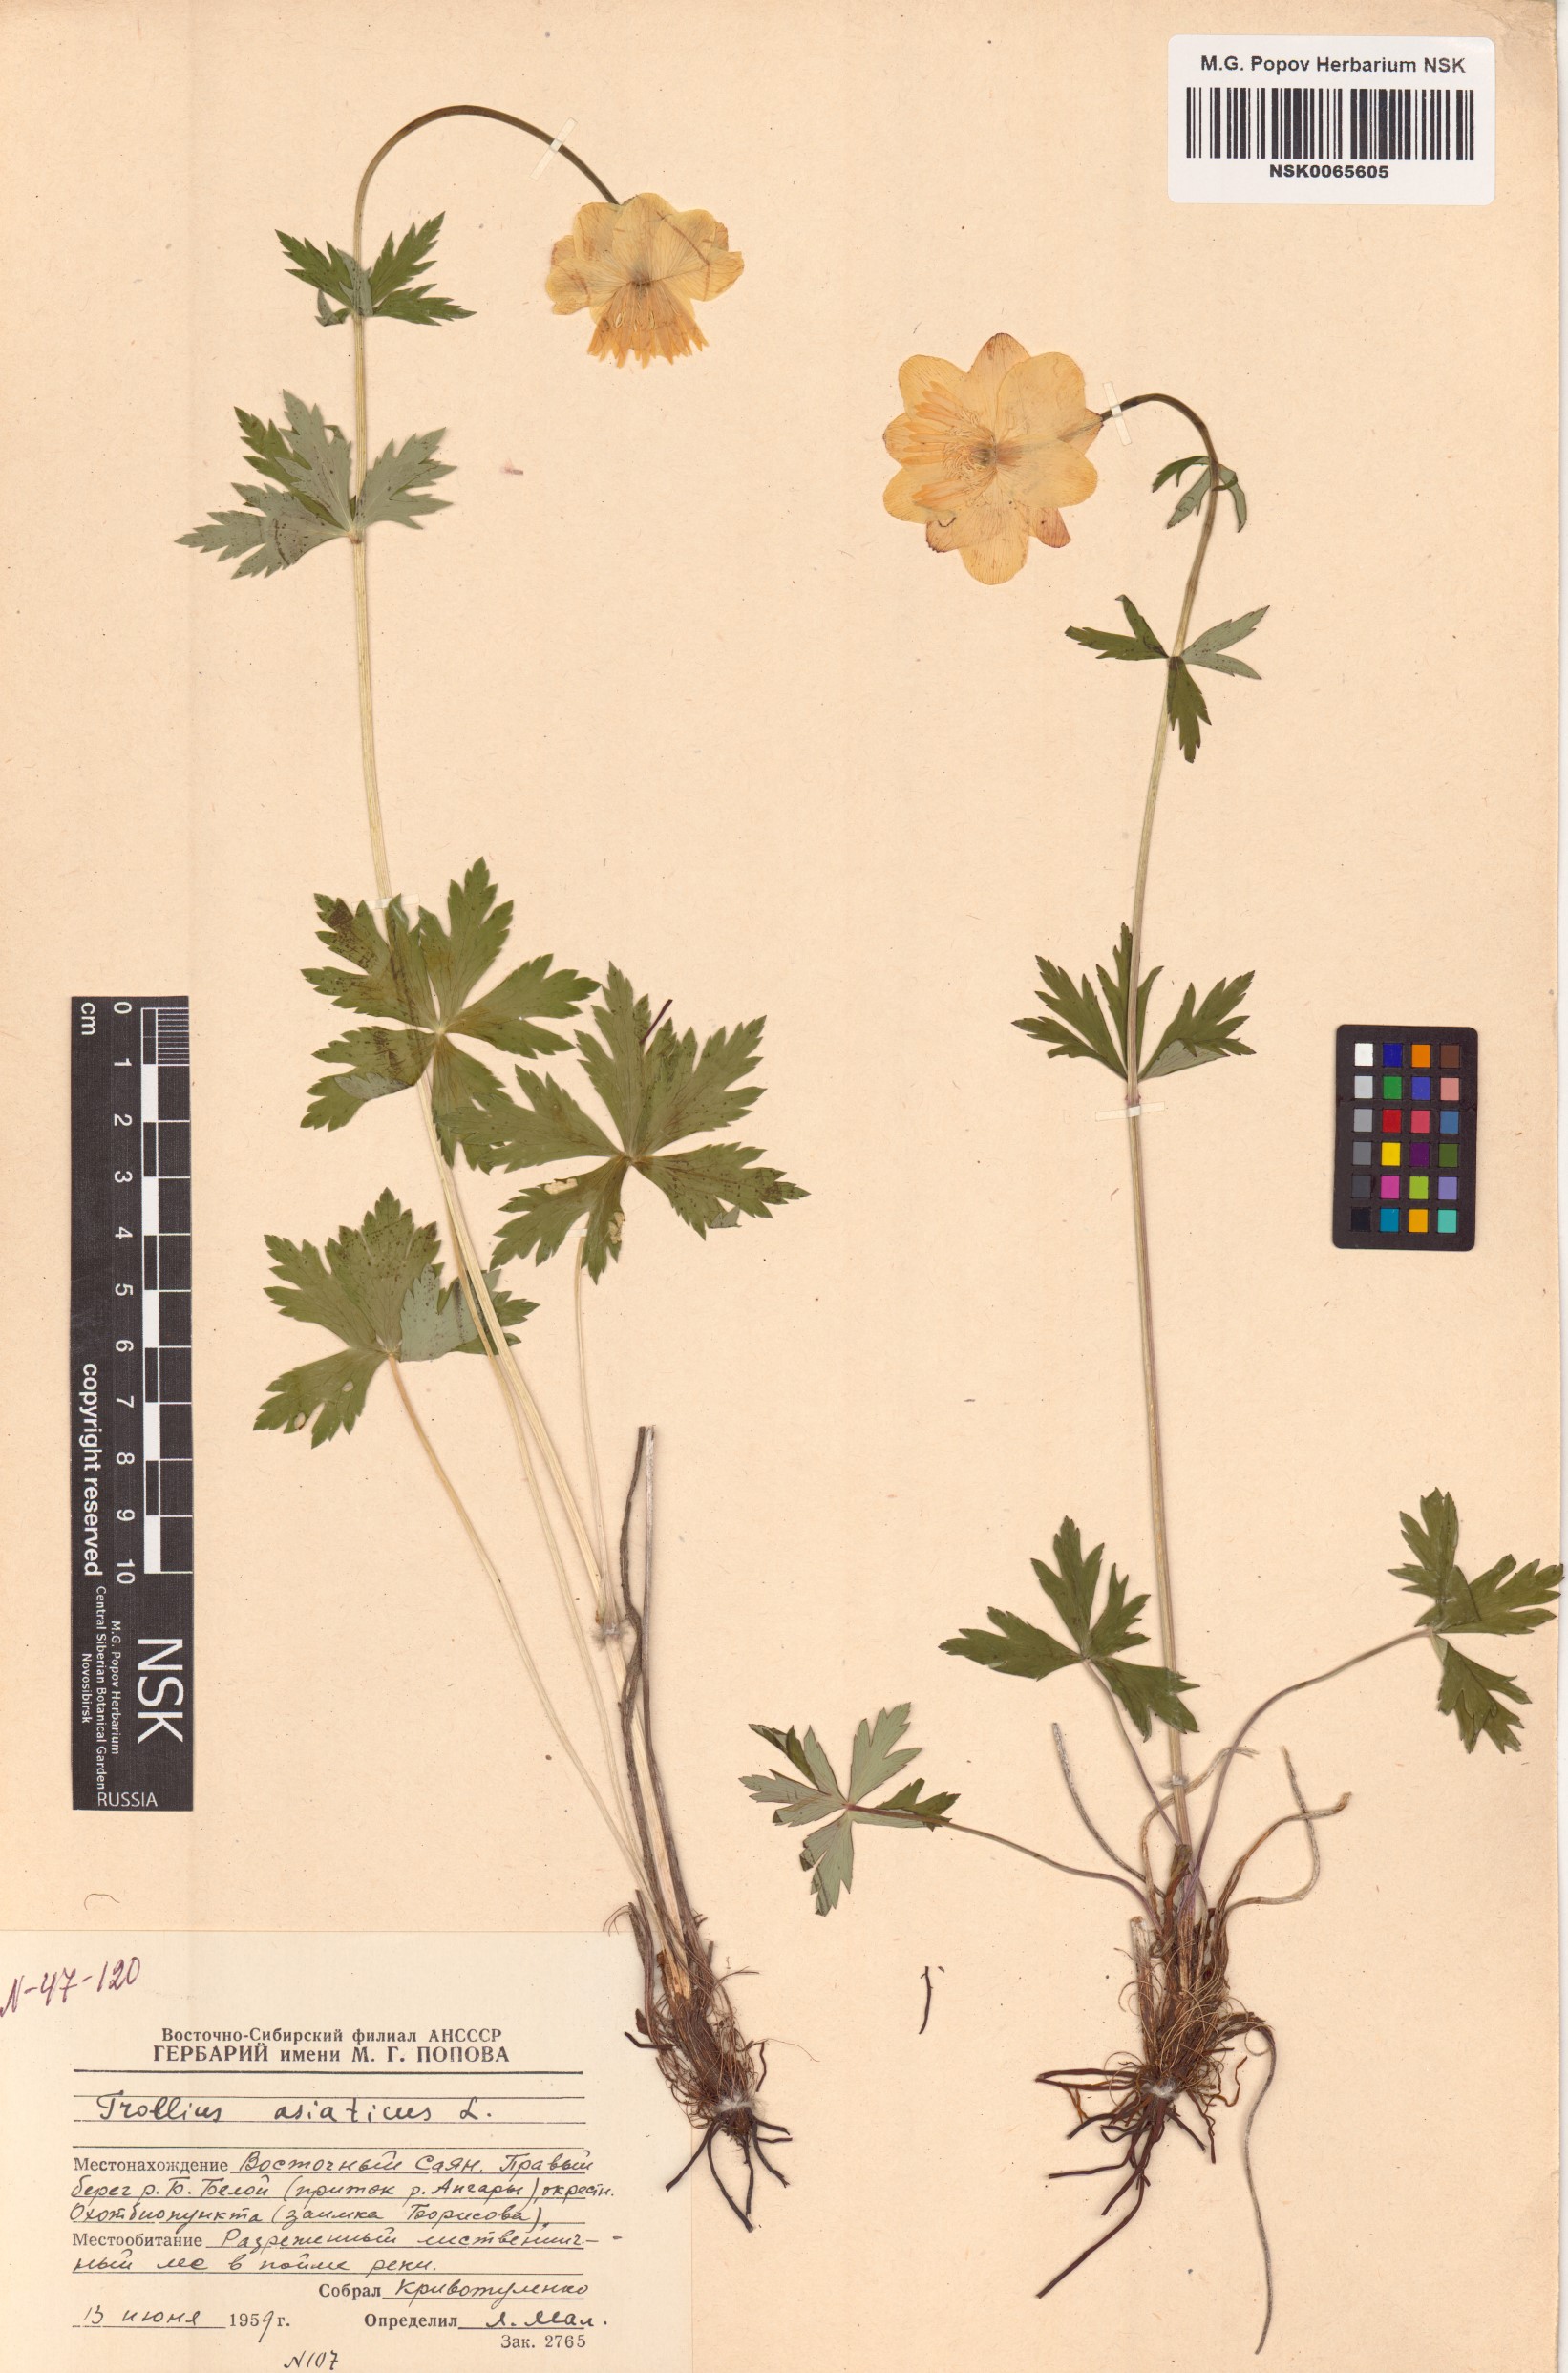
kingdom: Plantae
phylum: Tracheophyta
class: Magnoliopsida
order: Ranunculales
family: Ranunculaceae
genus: Trollius
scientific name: Trollius asiaticus
